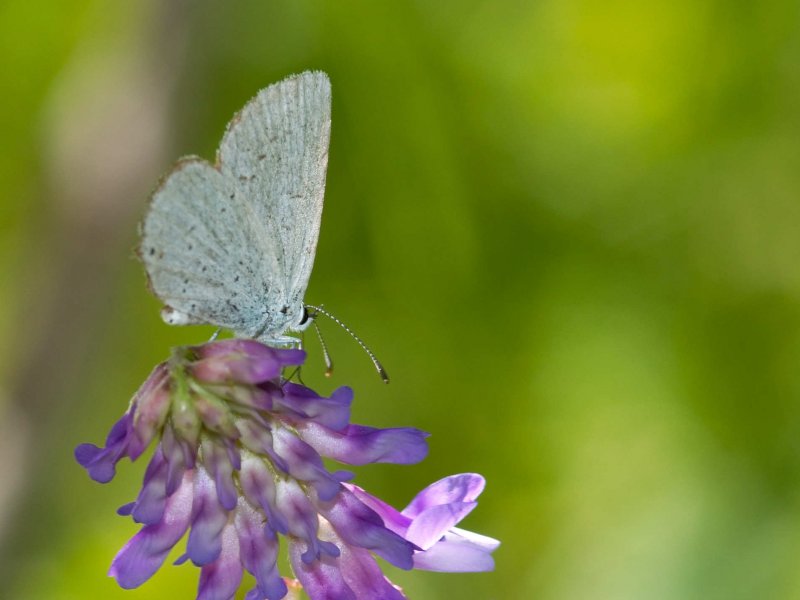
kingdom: Animalia
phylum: Arthropoda
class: Insecta
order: Lepidoptera
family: Lycaenidae
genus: Elkalyce
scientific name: Elkalyce amyntula
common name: Western Tailed-Blue
